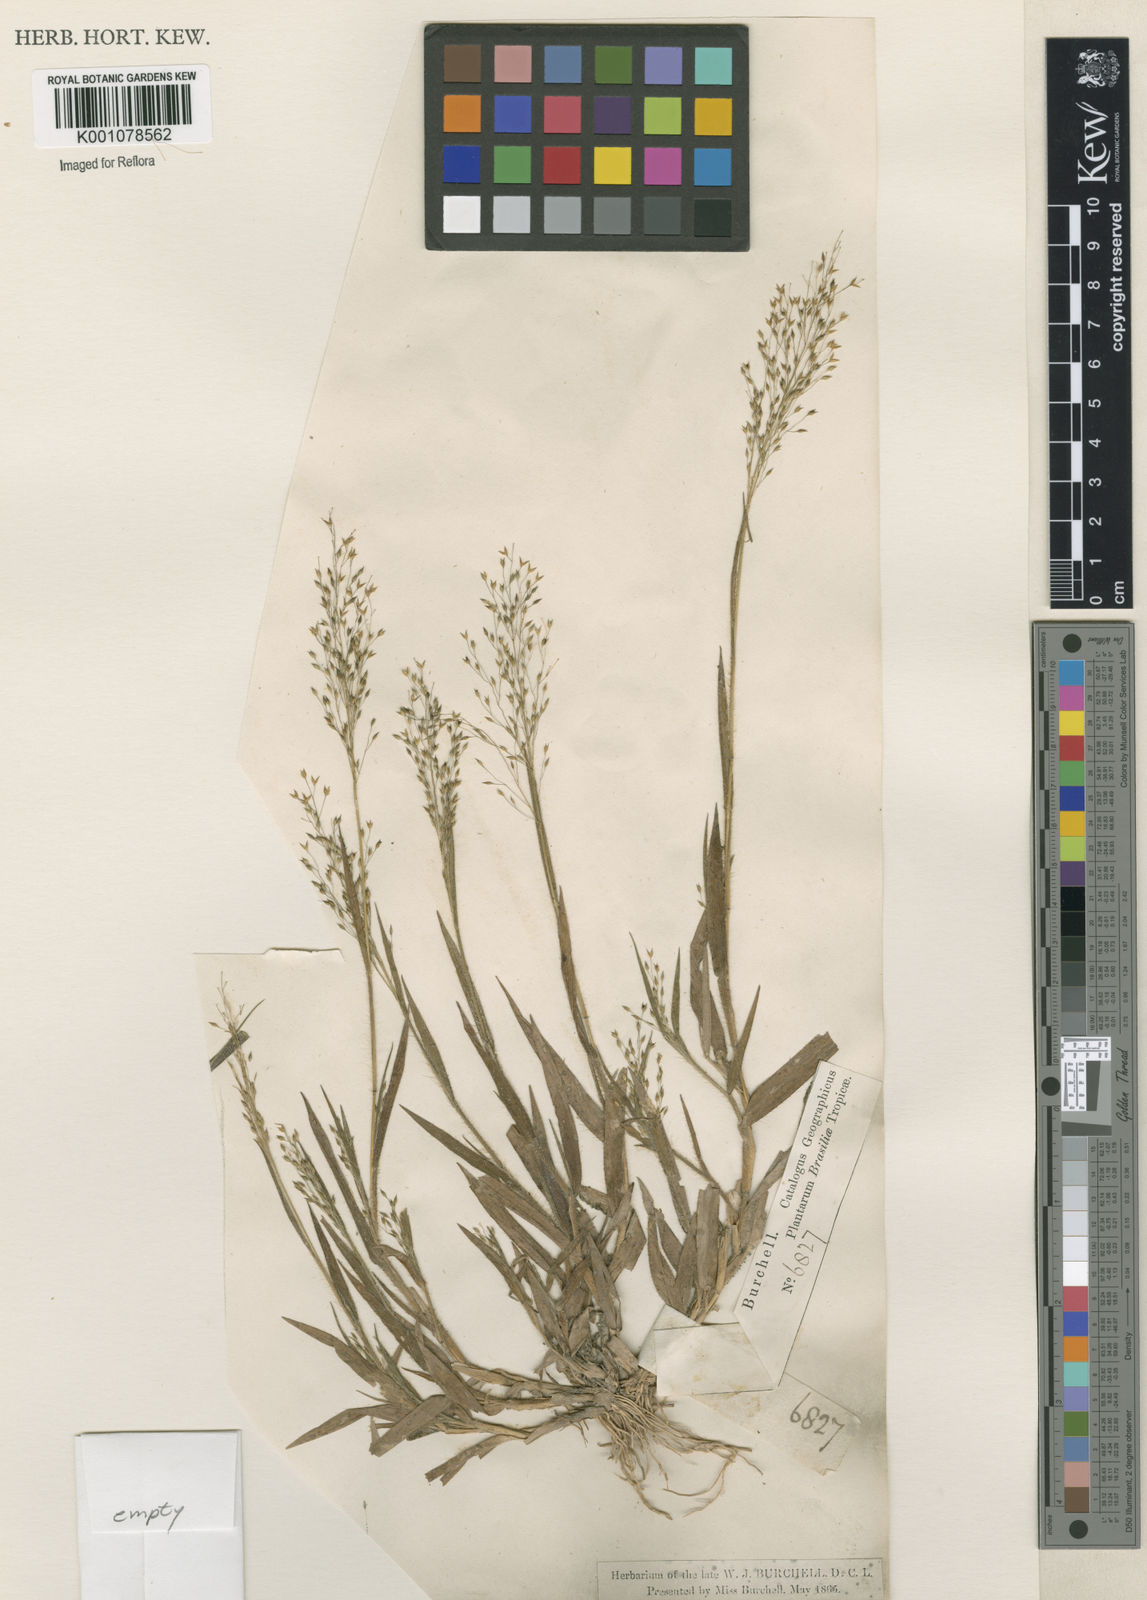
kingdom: Plantae
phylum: Tracheophyta
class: Liliopsida
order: Poales
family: Poaceae
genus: Panicum
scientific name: Panicum exiguum
